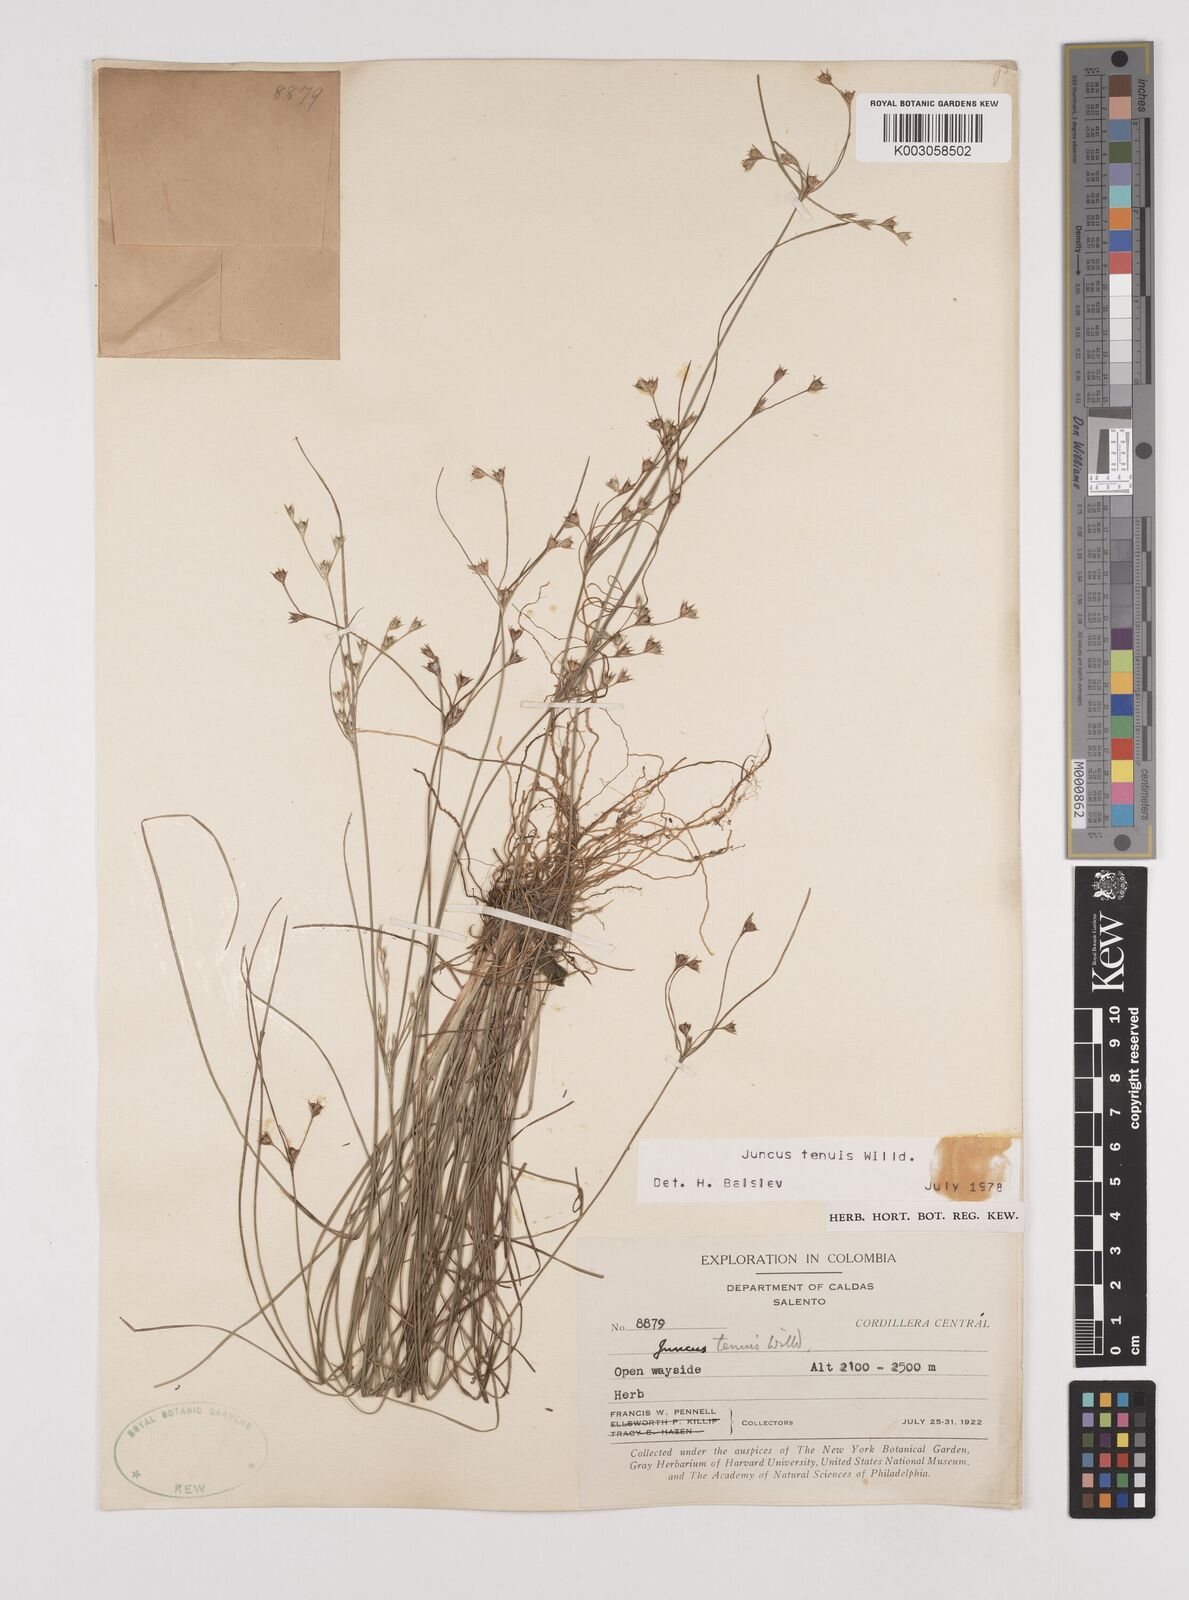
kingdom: Plantae
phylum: Tracheophyta
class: Liliopsida
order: Poales
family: Juncaceae
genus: Juncus
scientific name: Juncus tenuis
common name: Slender rush
